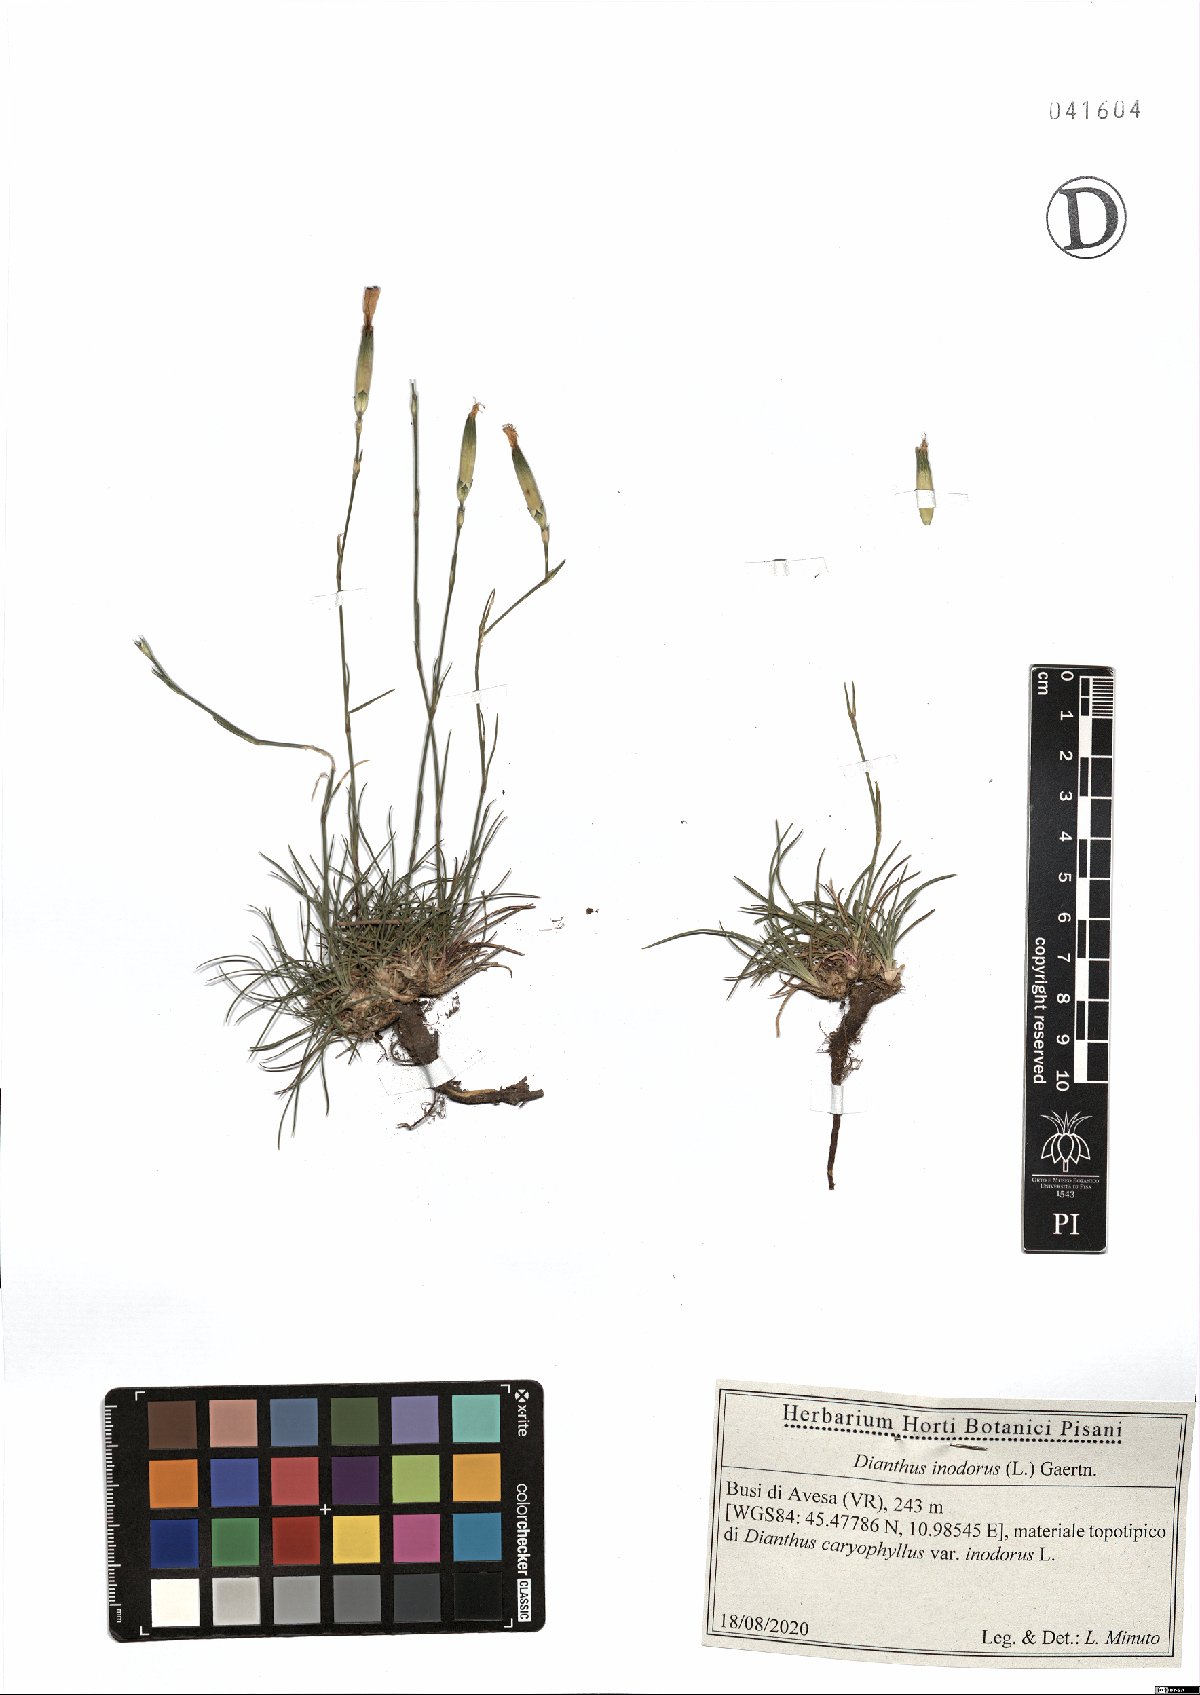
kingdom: Plantae
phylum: Tracheophyta
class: Magnoliopsida
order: Caryophyllales
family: Caryophyllaceae
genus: Dianthus
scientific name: Dianthus sylvestris
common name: Wood pink
